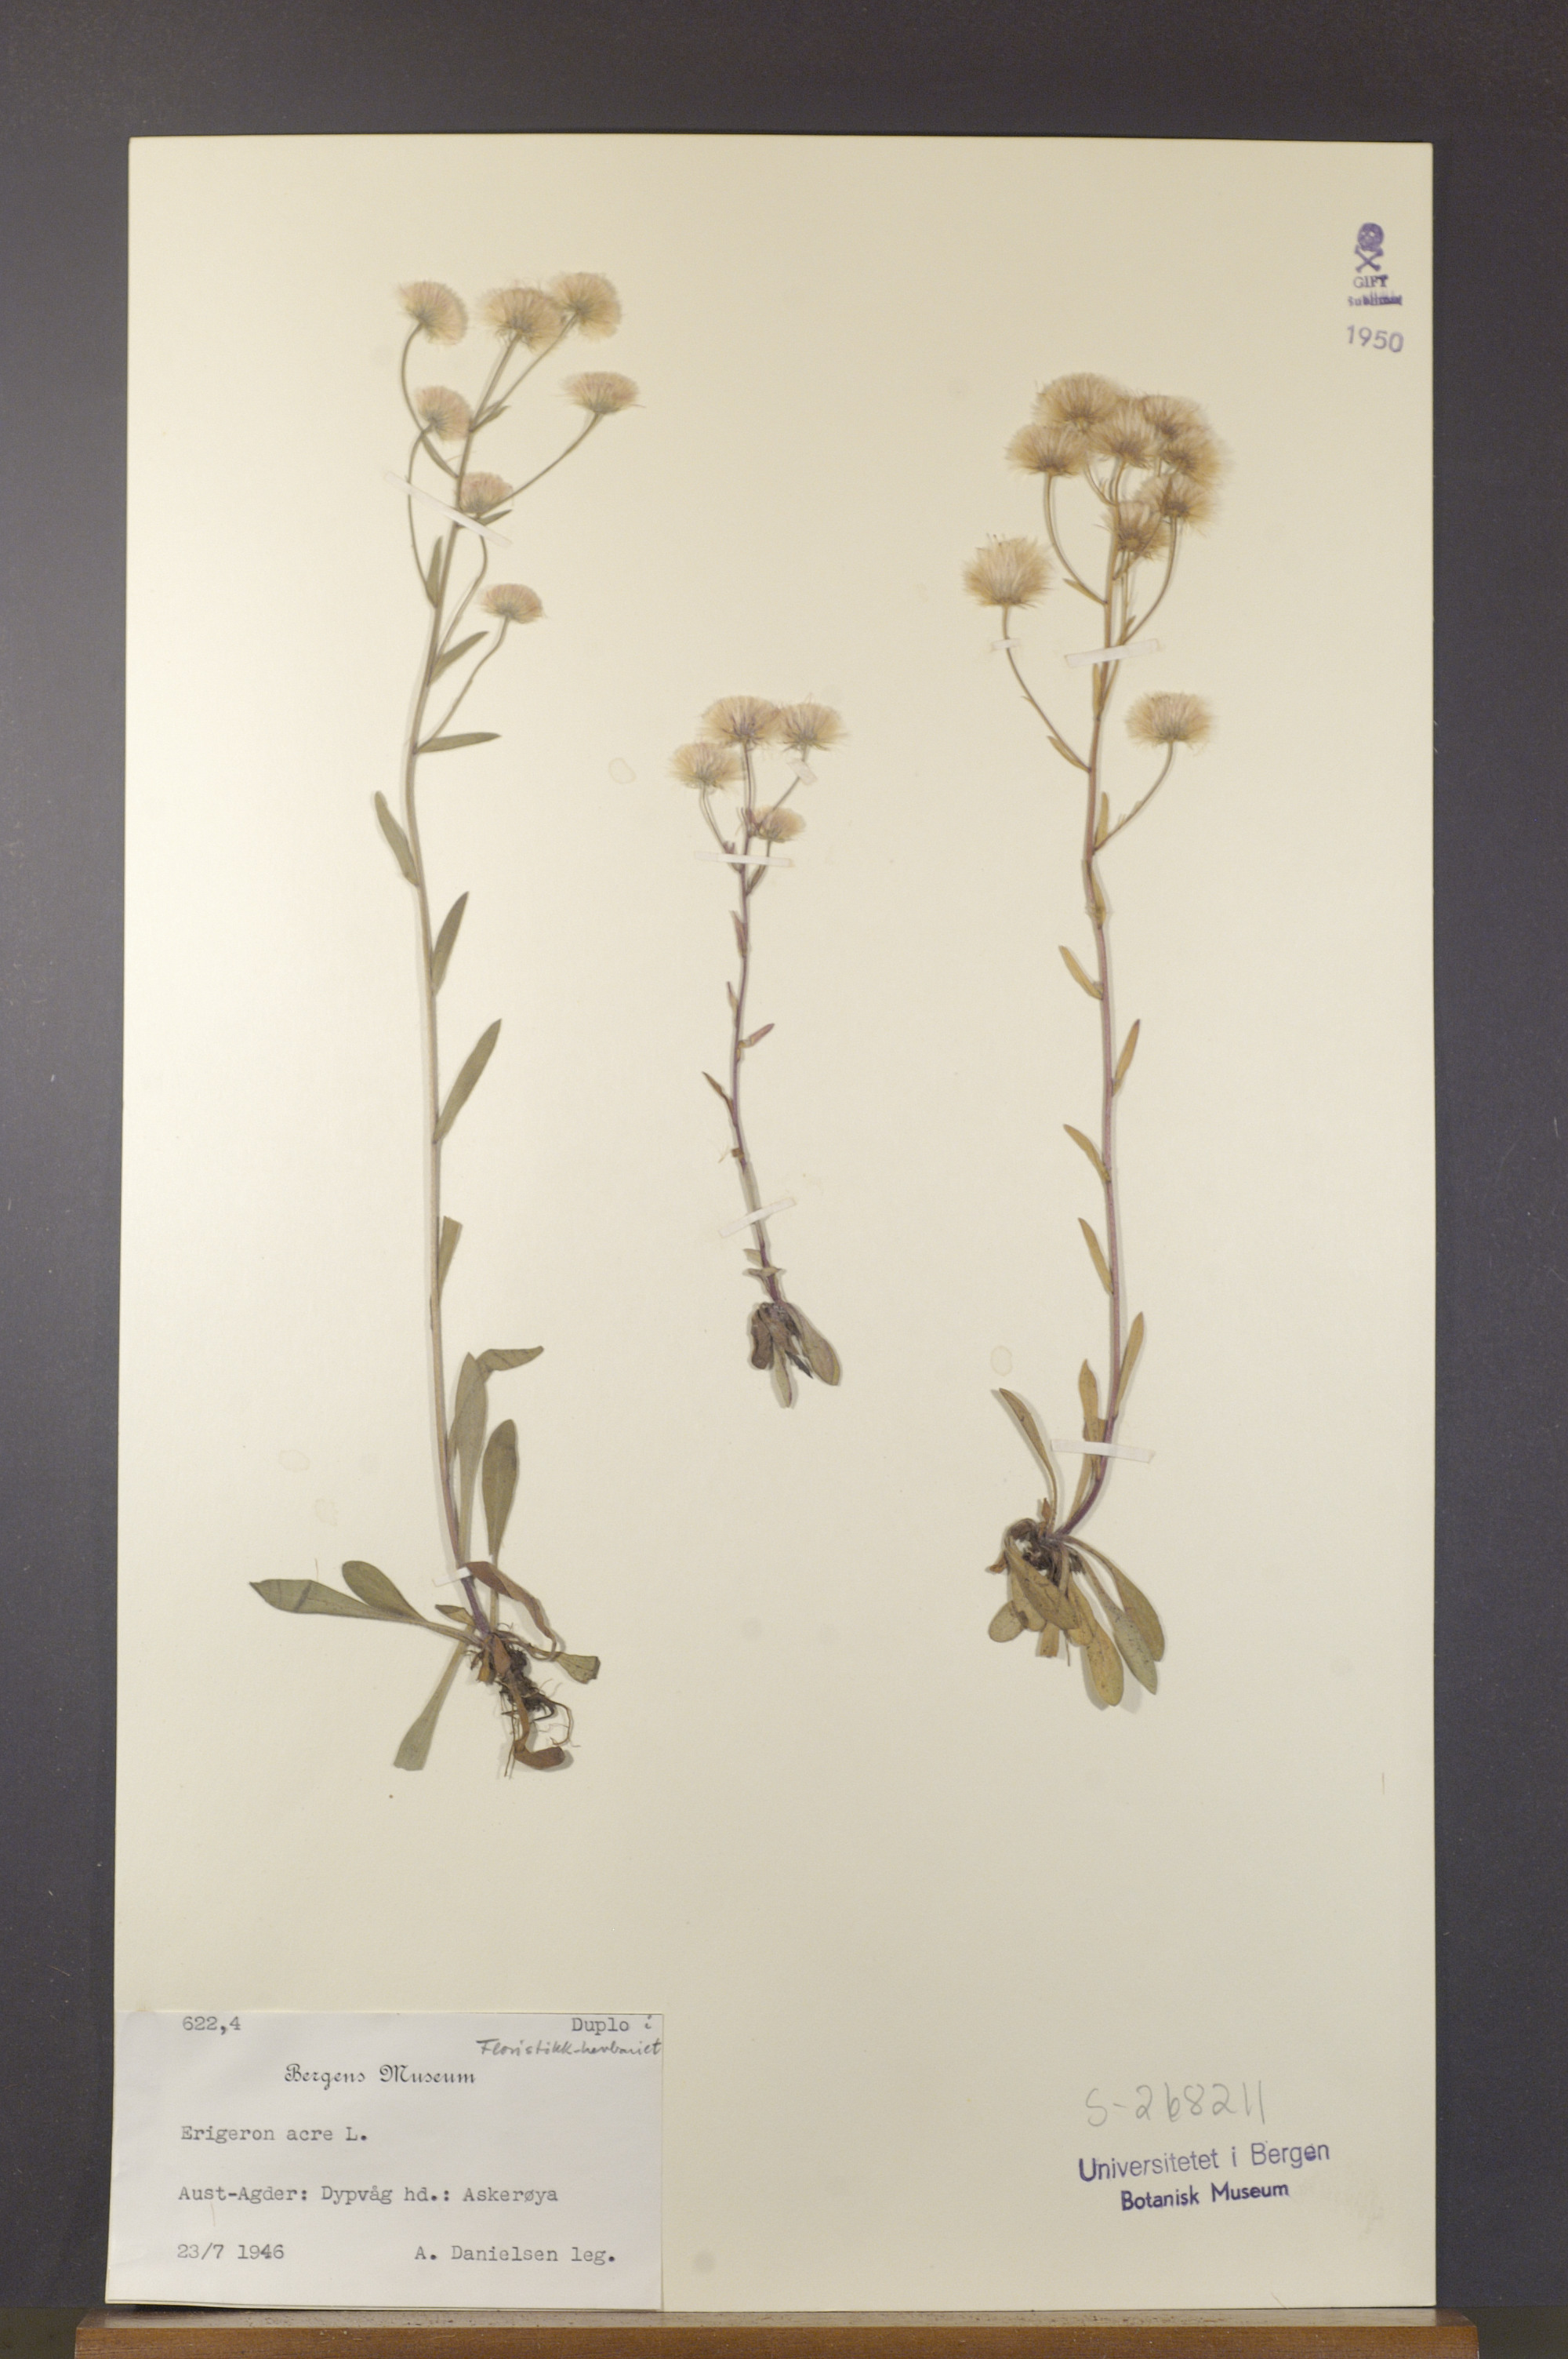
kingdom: Plantae
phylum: Tracheophyta
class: Magnoliopsida
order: Asterales
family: Asteraceae
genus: Erigeron
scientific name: Erigeron acris
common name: Blue fleabane
